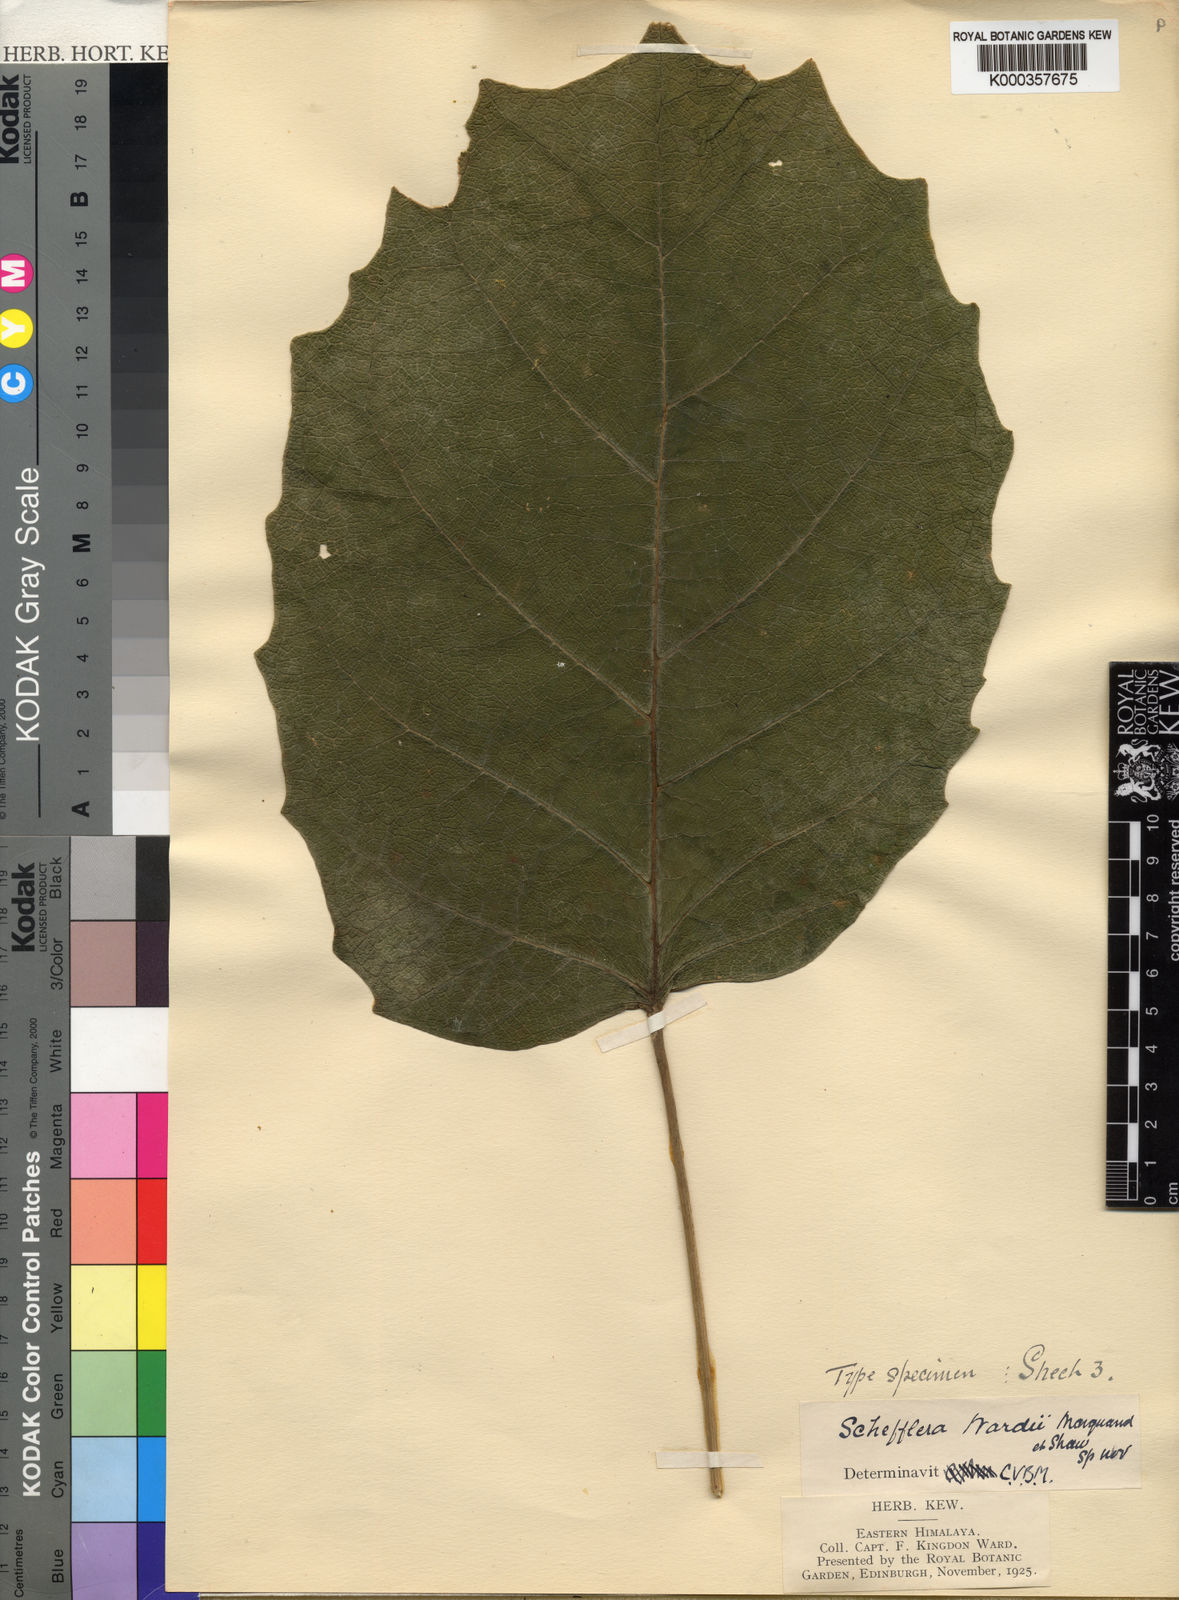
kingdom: Plantae
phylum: Tracheophyta
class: Magnoliopsida
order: Apiales
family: Araliaceae
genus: Heptapleurum
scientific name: Heptapleurum wardii
